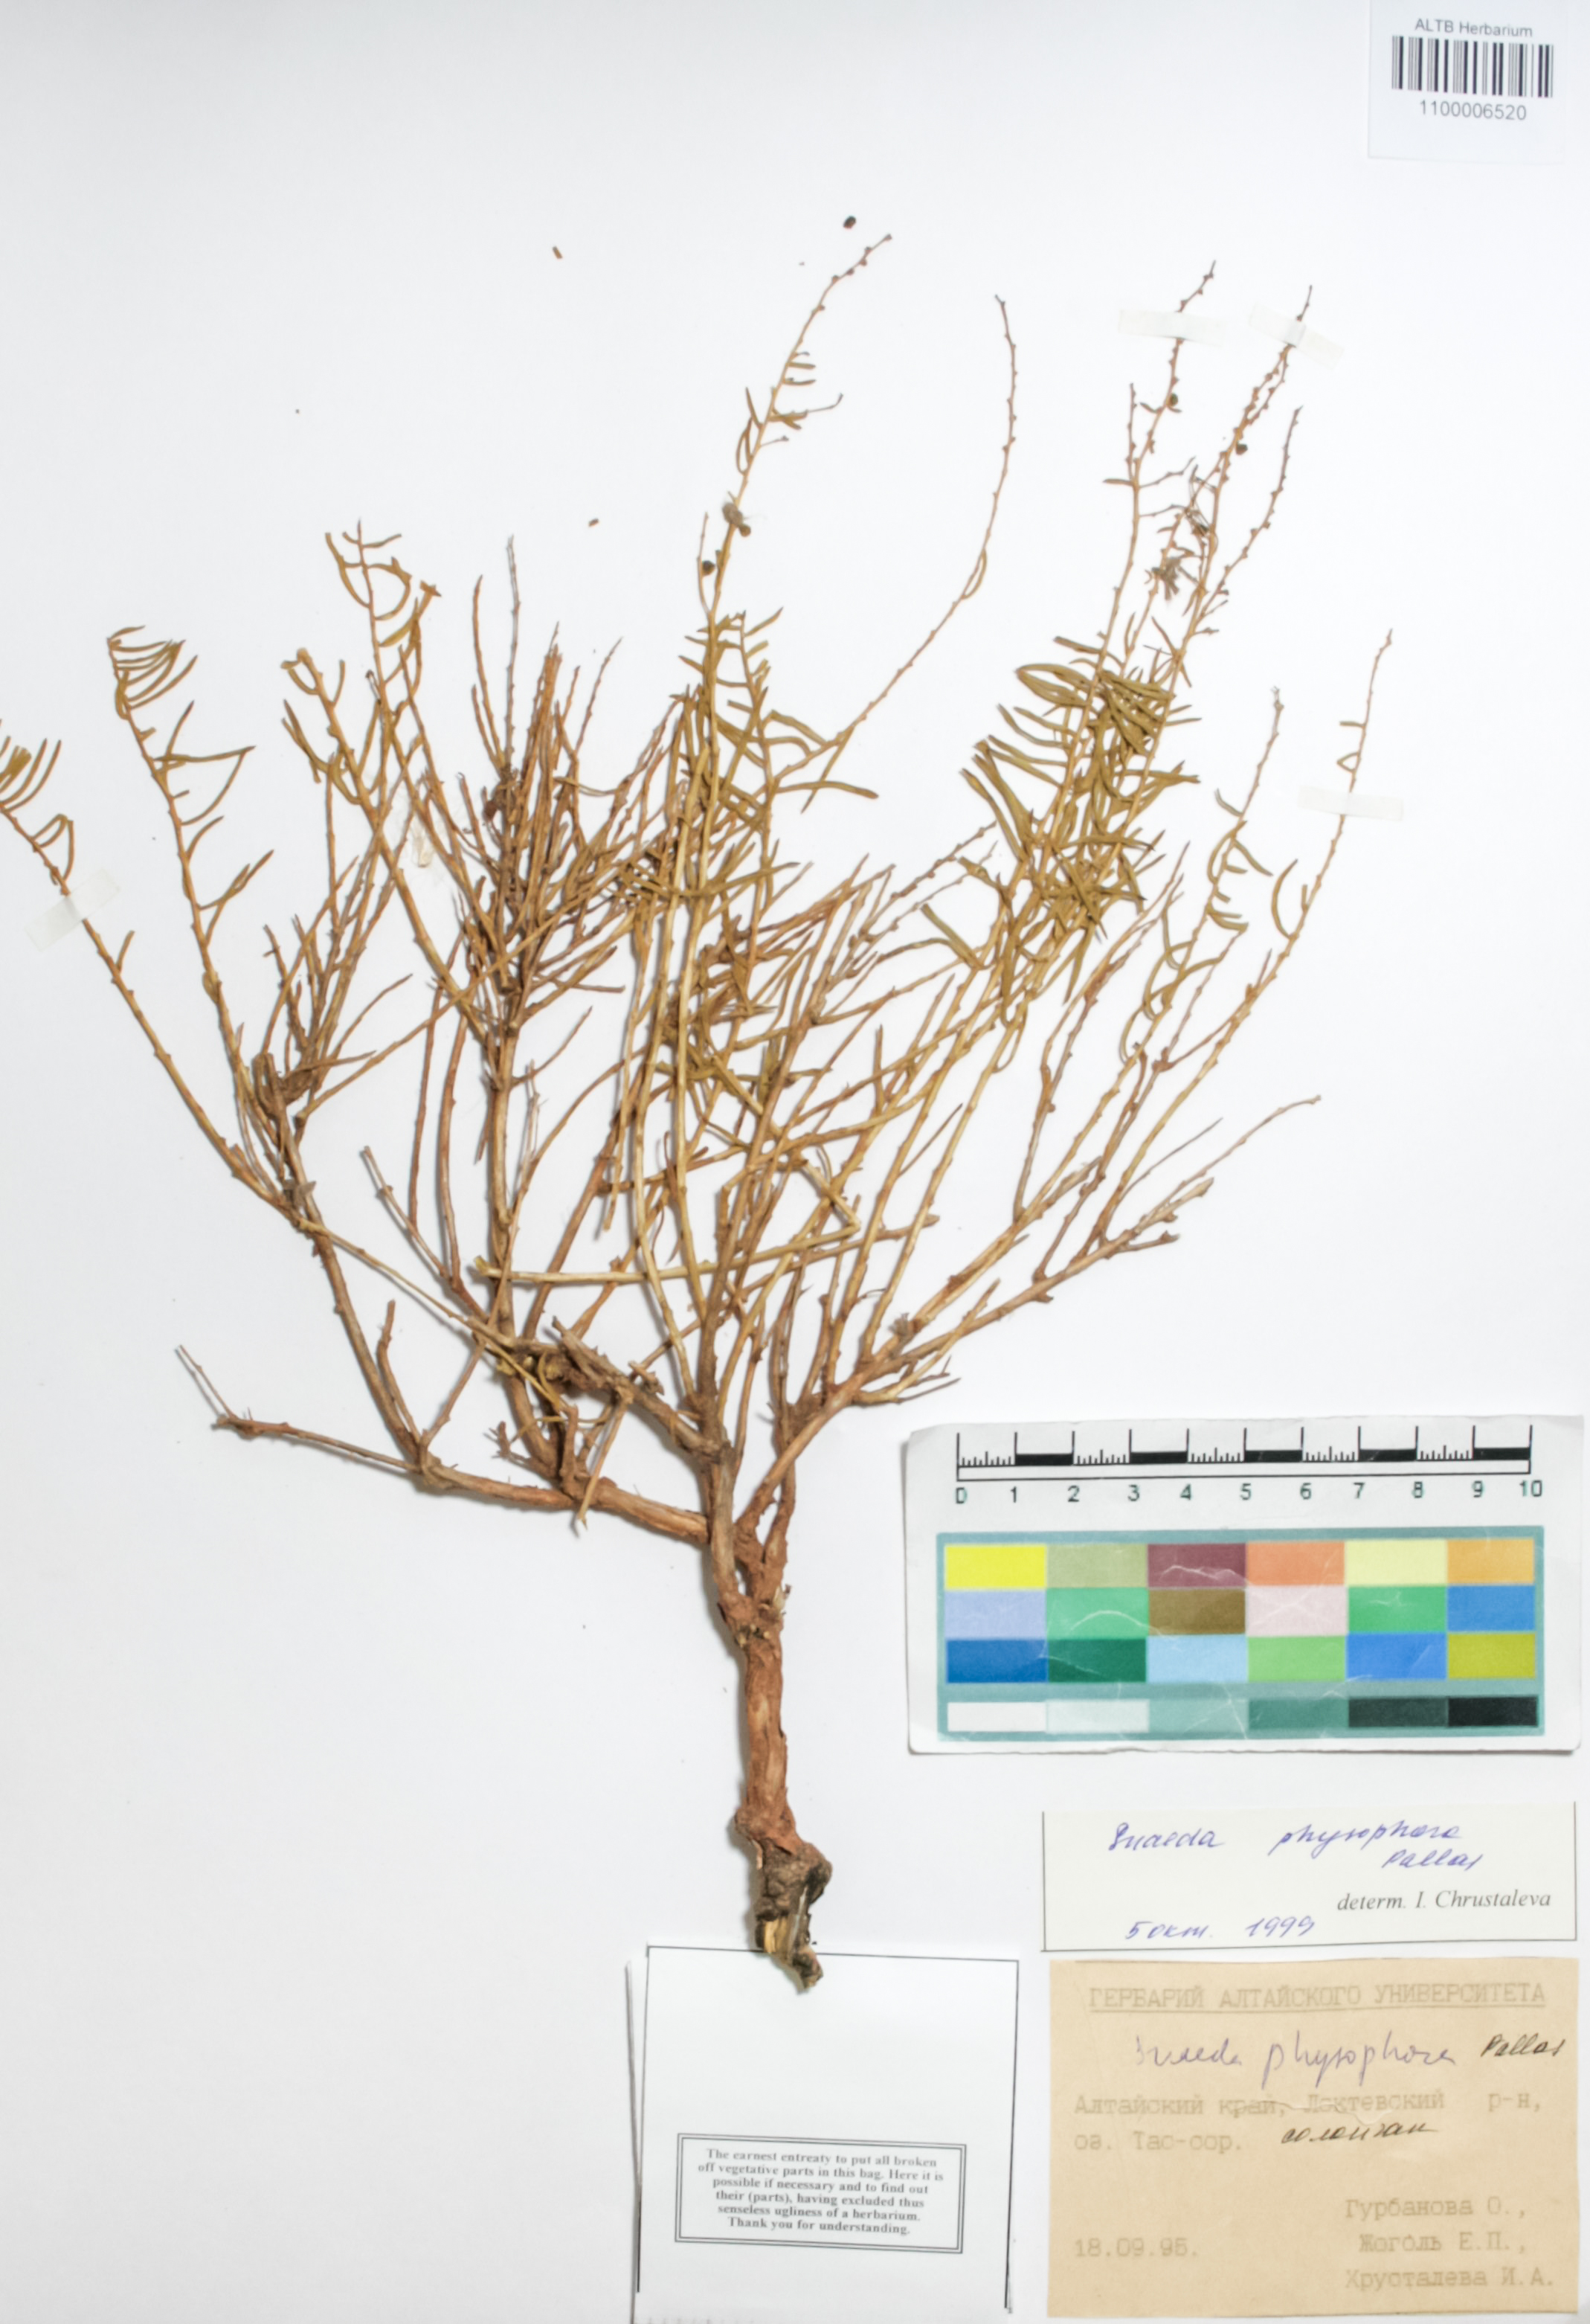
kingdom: Plantae
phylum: Tracheophyta
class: Magnoliopsida
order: Caryophyllales
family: Amaranthaceae
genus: Suaeda
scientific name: Suaeda physophora
